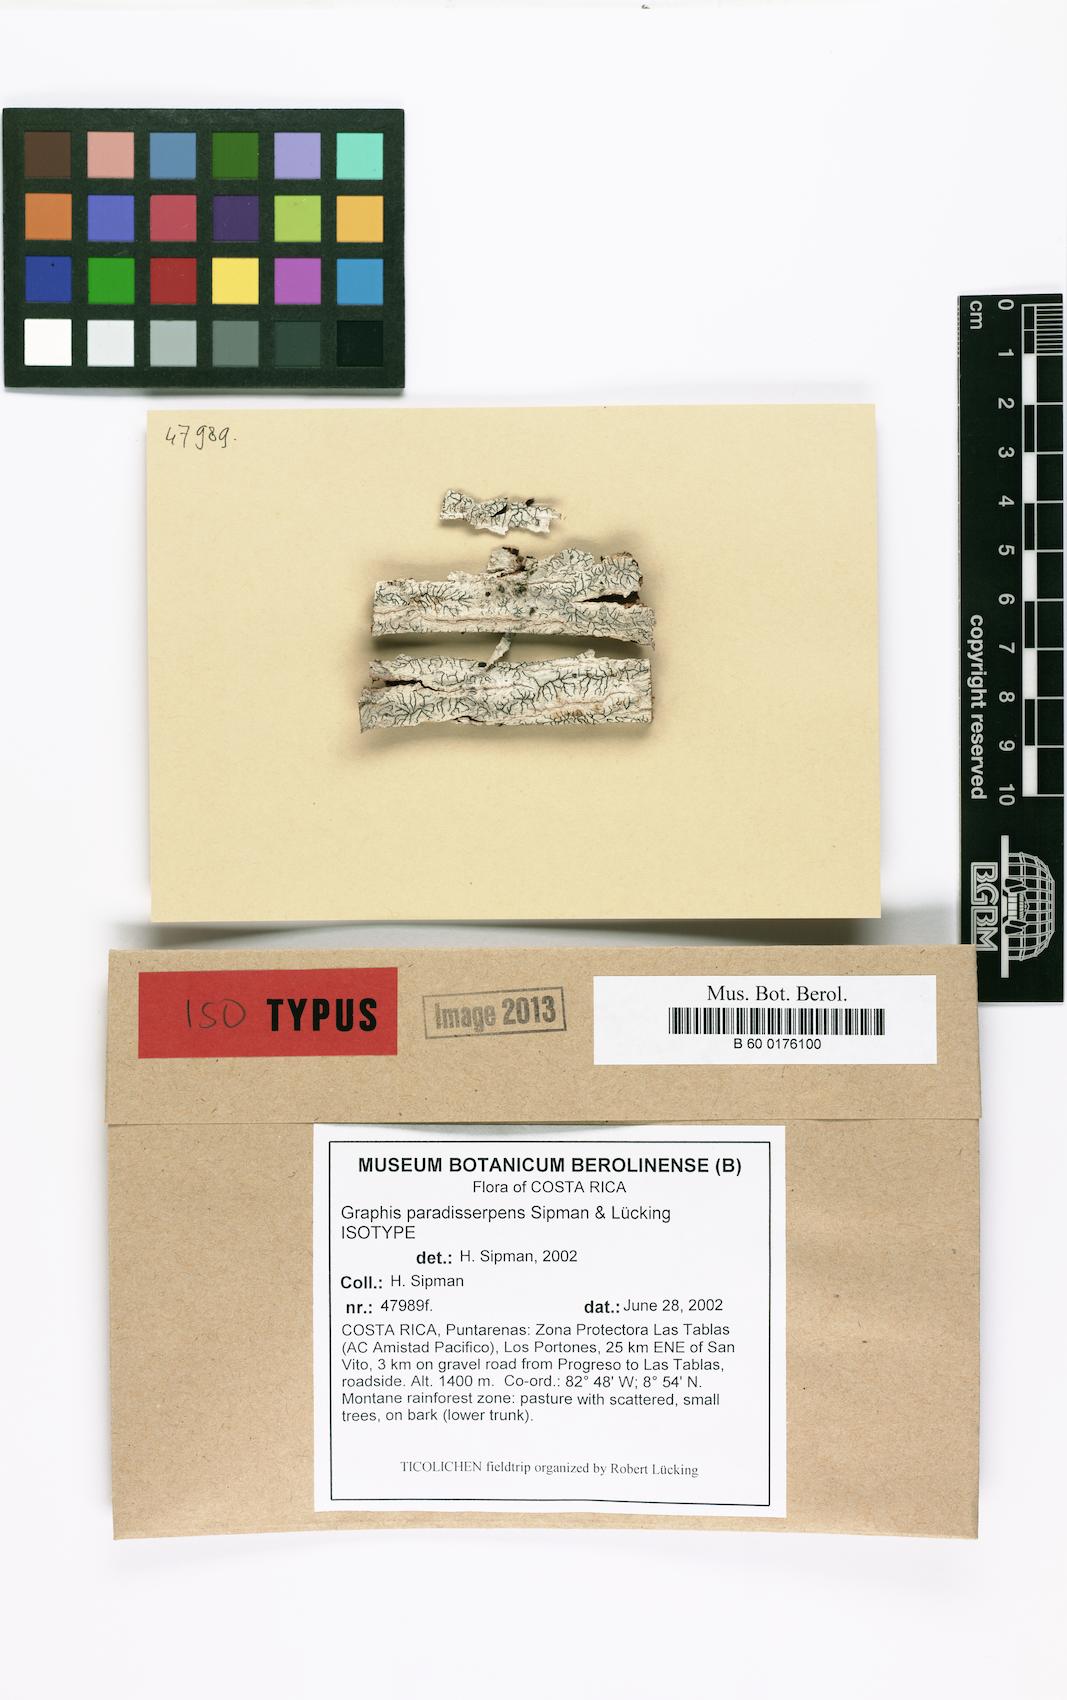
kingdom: Fungi
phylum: Ascomycota
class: Lecanoromycetes
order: Ostropales
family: Graphidaceae
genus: Graphis
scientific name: Graphis paradisserpens
